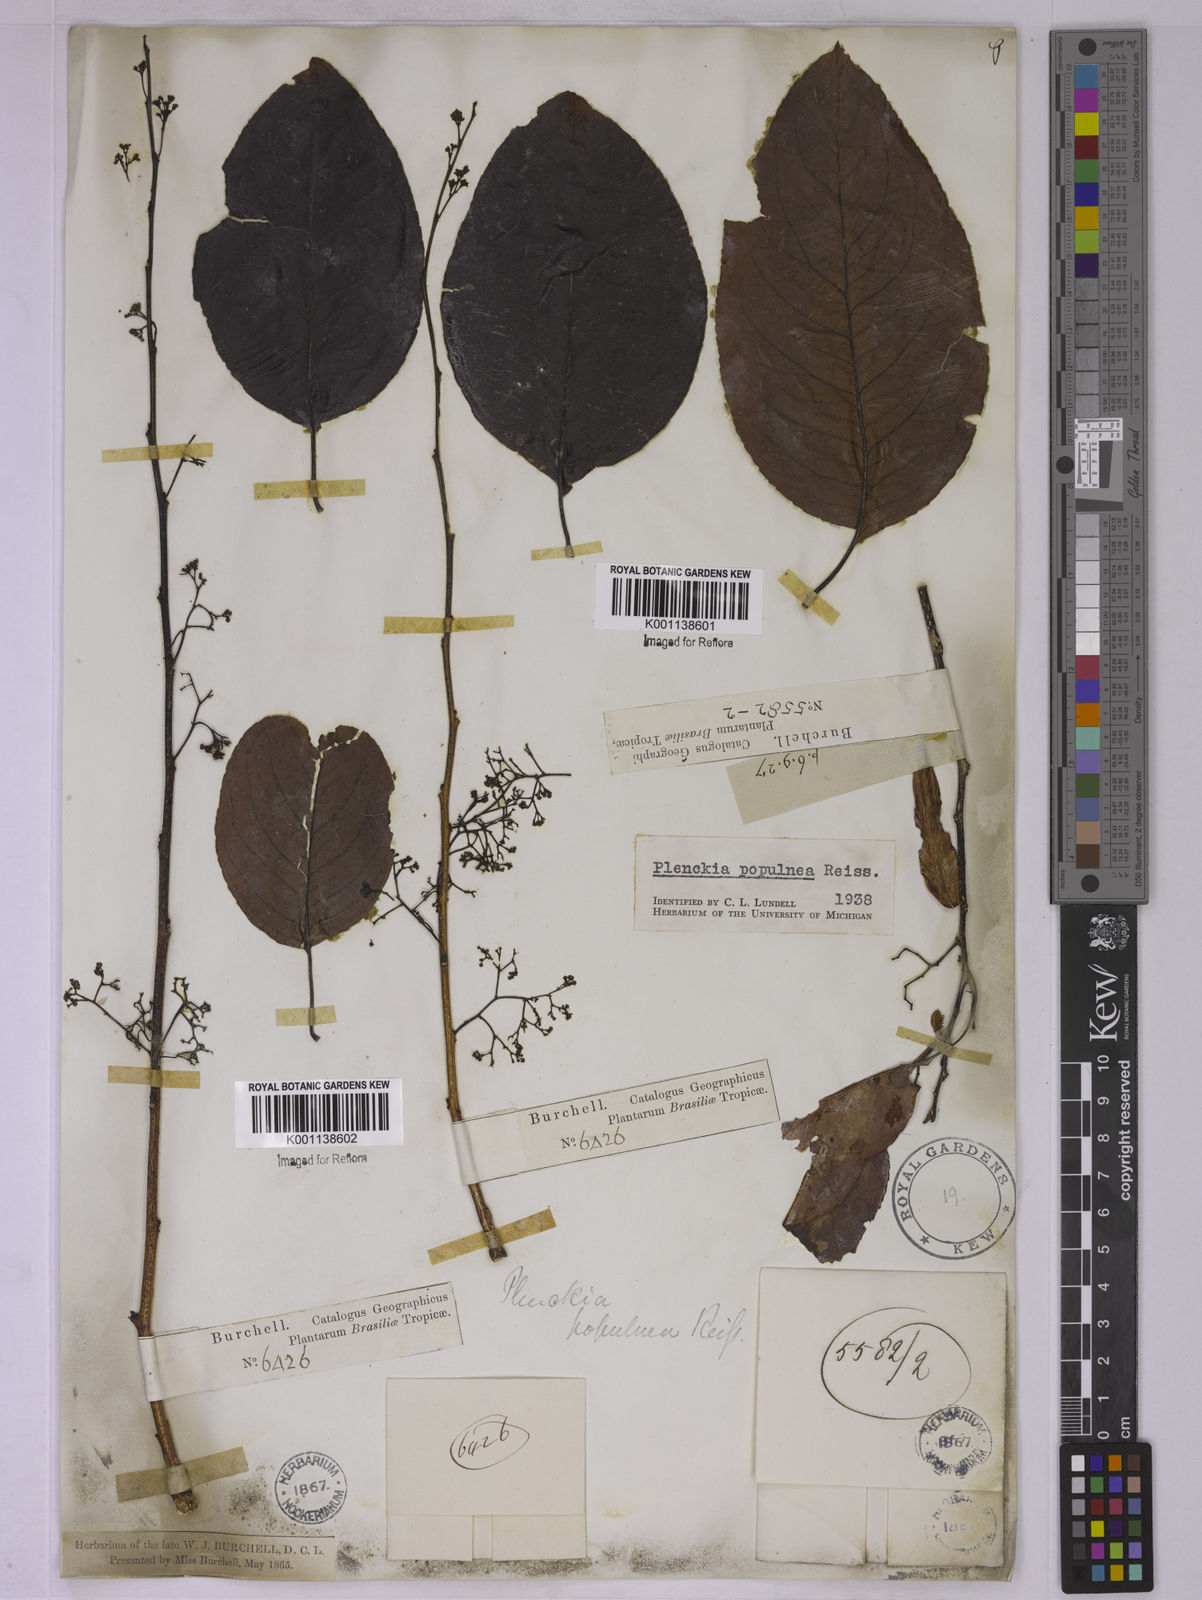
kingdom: Plantae
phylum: Tracheophyta
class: Magnoliopsida
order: Celastrales
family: Celastraceae
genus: Plenckia
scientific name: Plenckia populnea
